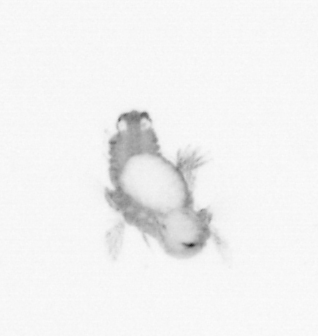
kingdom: Animalia
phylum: Annelida
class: Polychaeta
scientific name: Polychaeta
